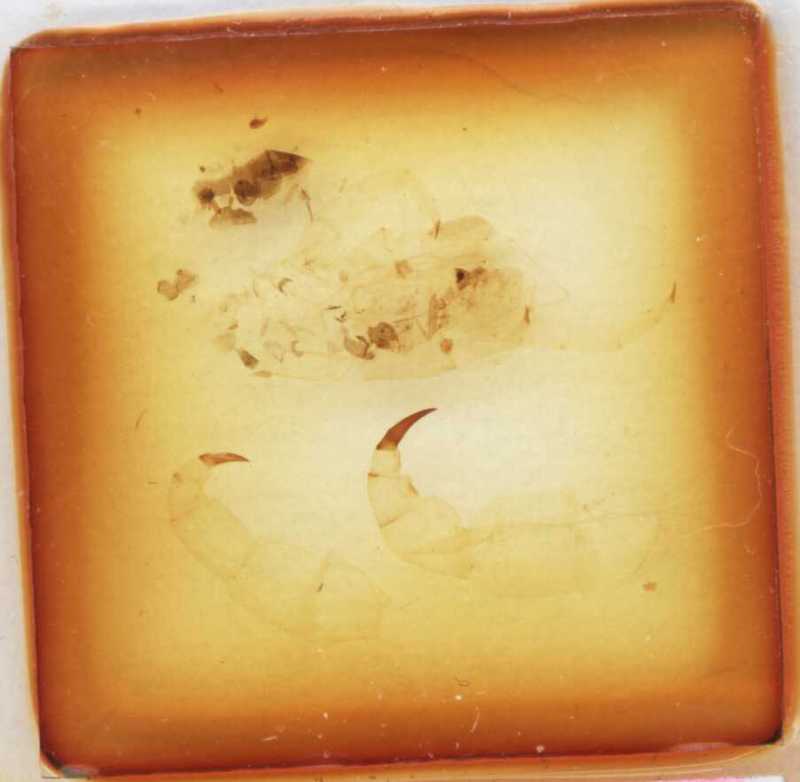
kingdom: Animalia
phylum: Arthropoda
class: Chilopoda
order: Scolopendromorpha
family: Scolopendridae
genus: Malaccolabis
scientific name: Malaccolabis metallica
